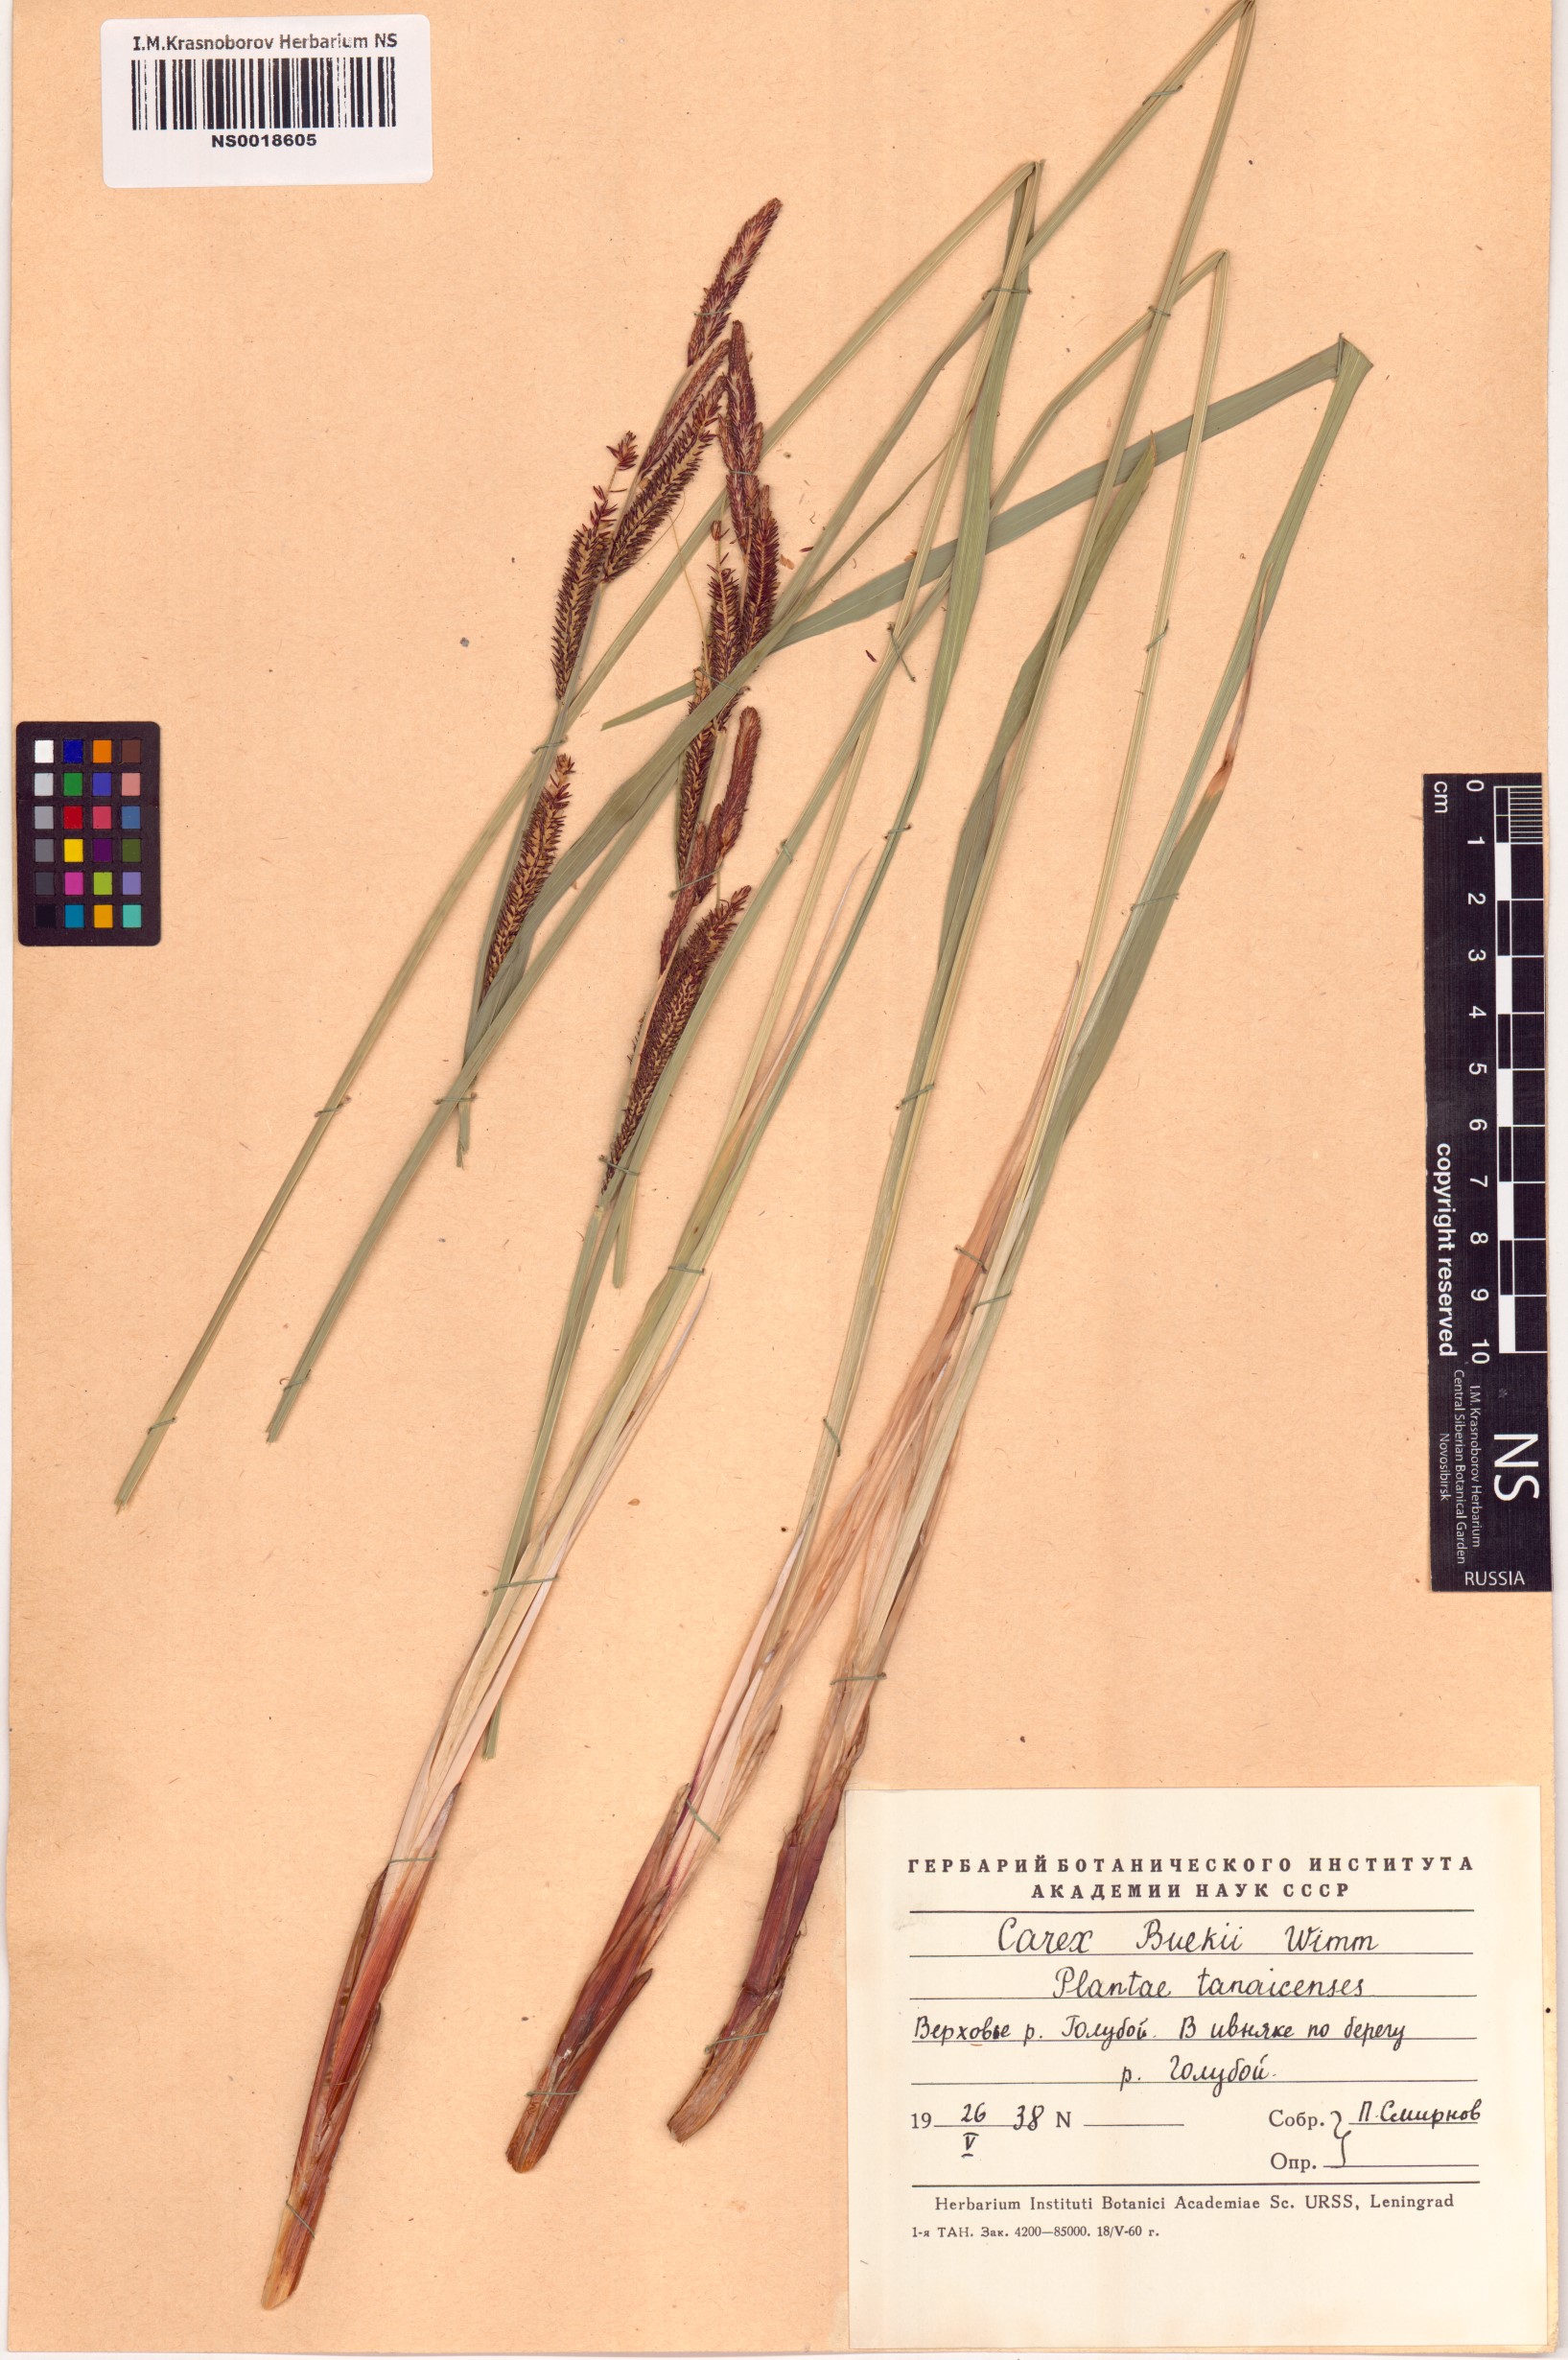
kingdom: Plantae
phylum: Tracheophyta
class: Liliopsida
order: Poales
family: Cyperaceae
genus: Carex
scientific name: Carex buekii
